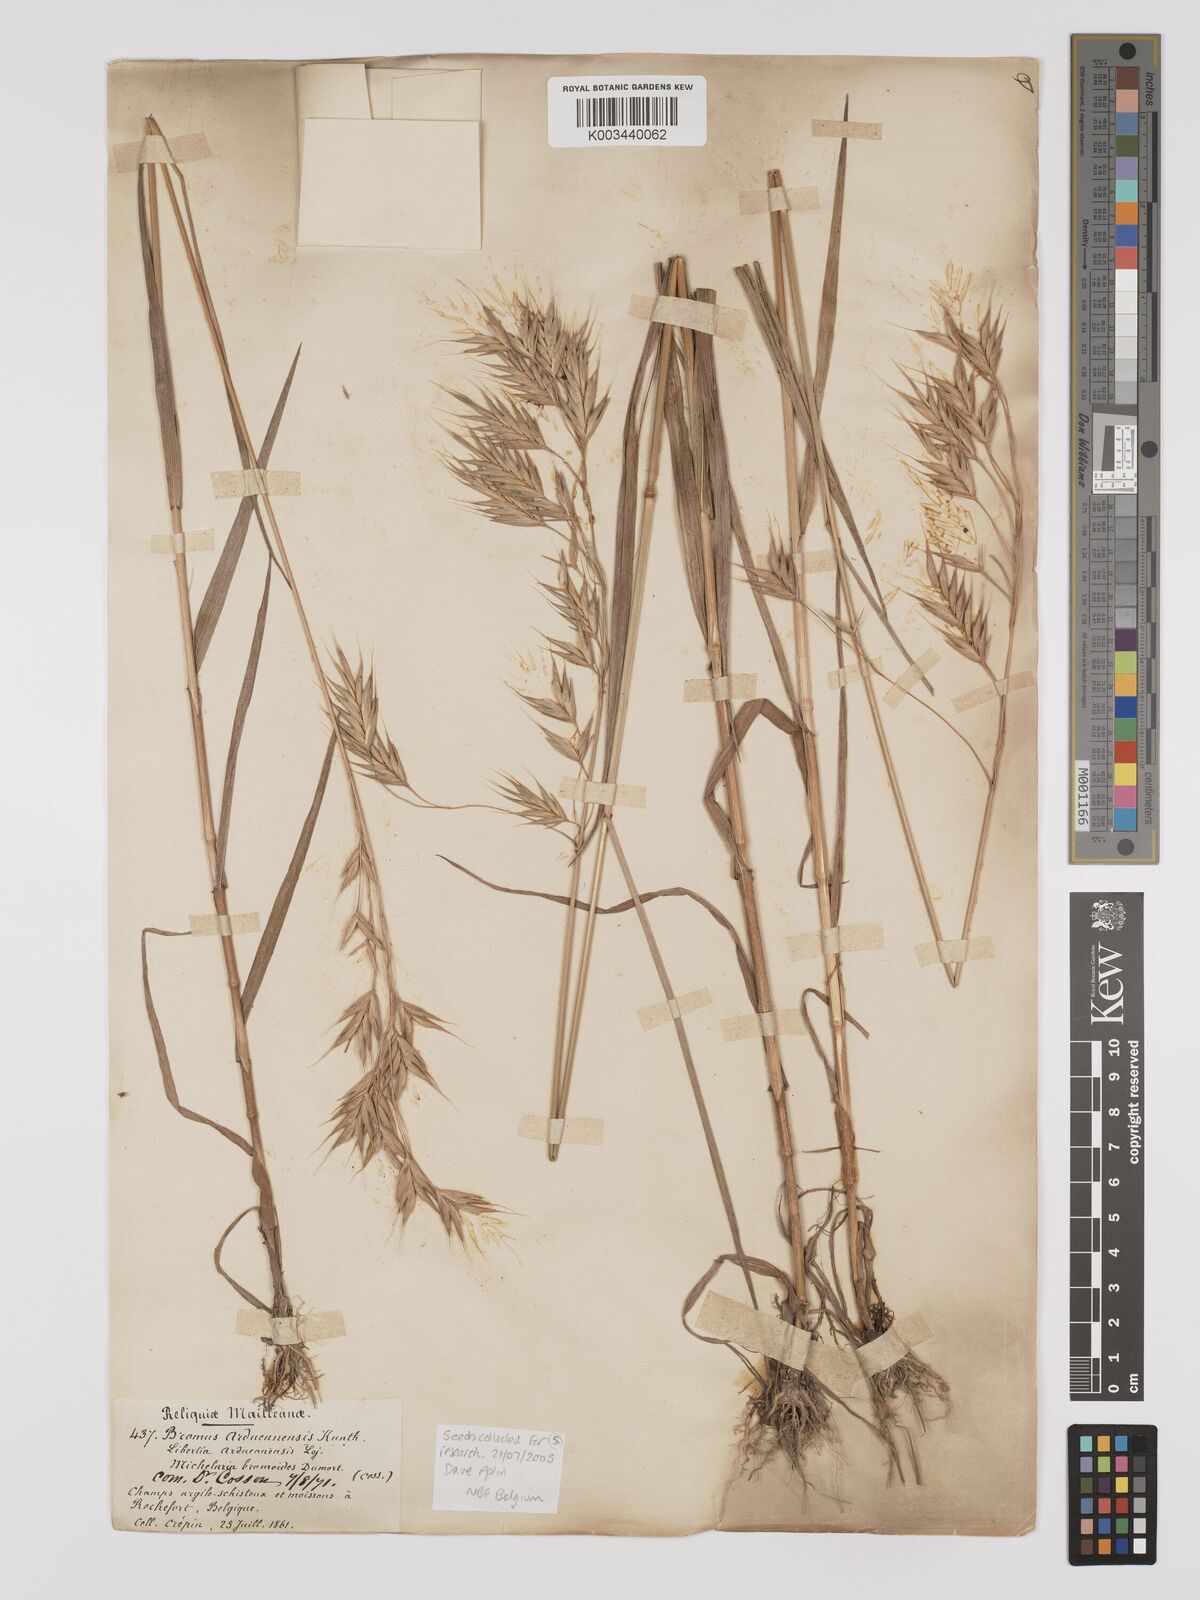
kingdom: Plantae
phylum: Tracheophyta
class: Liliopsida
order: Poales
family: Poaceae
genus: Bromus
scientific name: Bromus bromoideus
